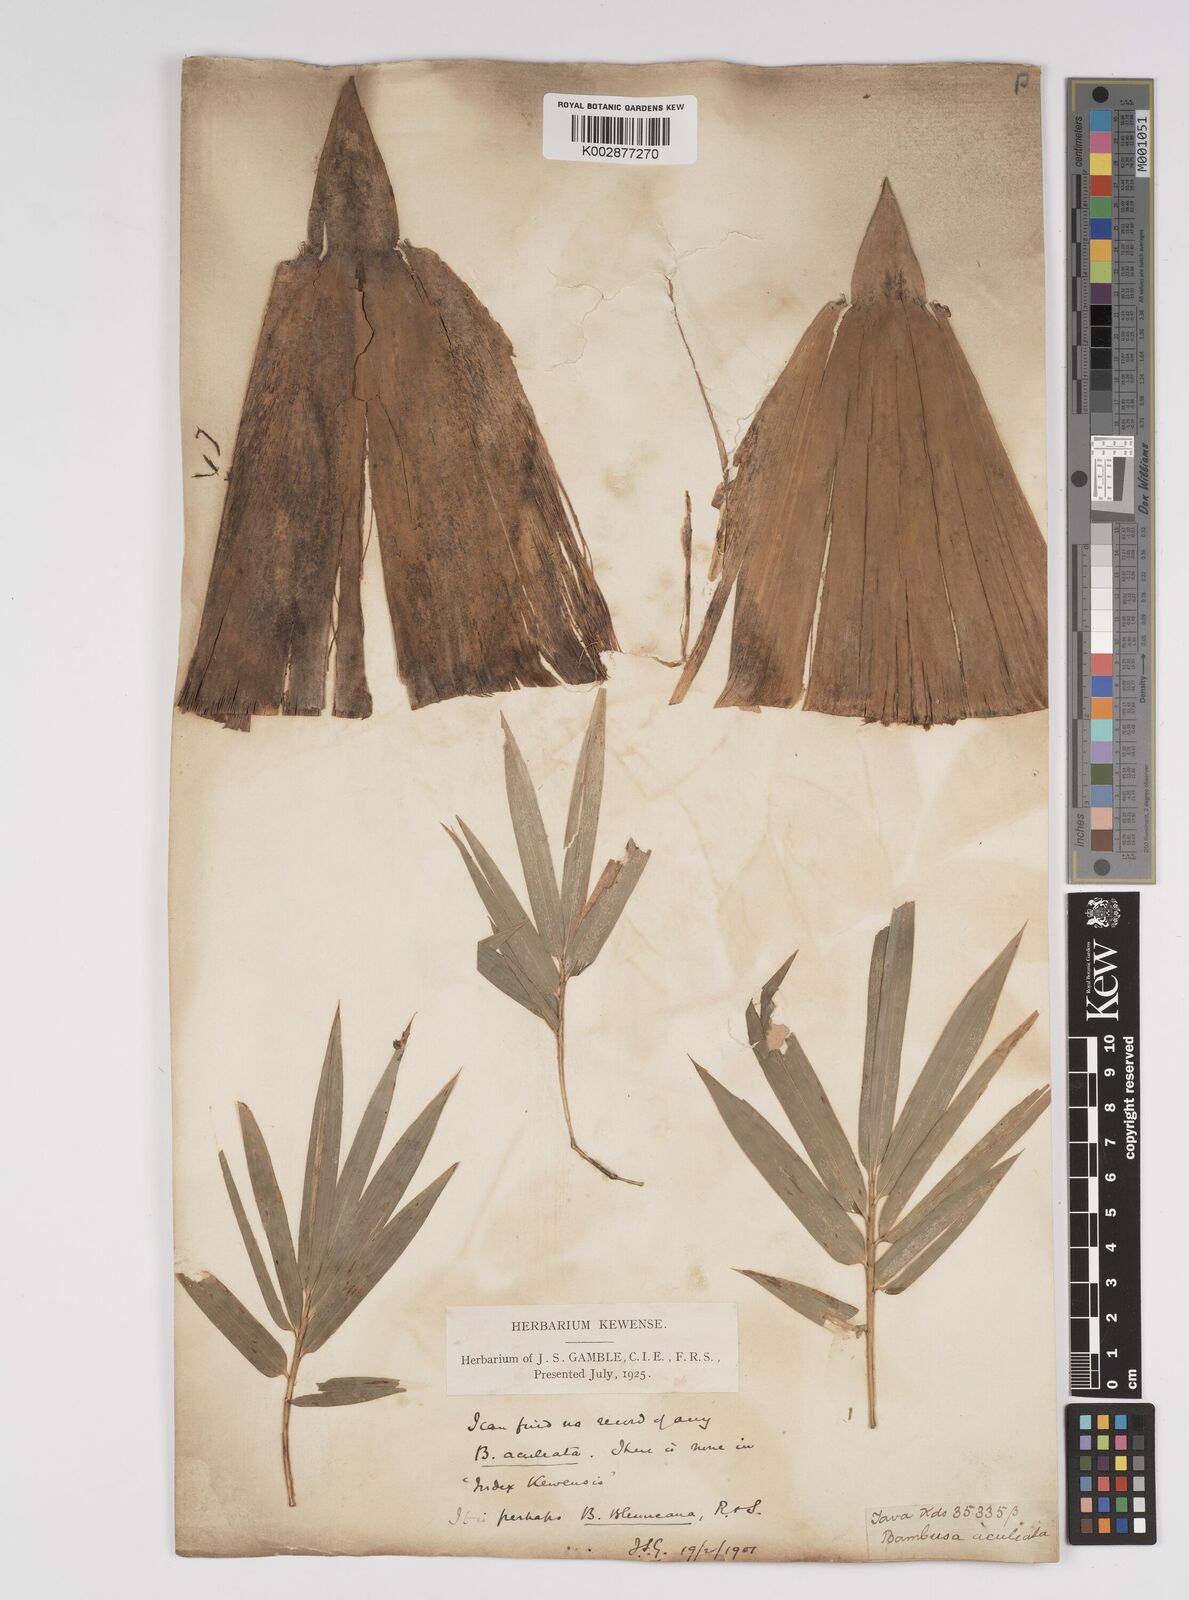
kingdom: Plantae
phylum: Tracheophyta
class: Liliopsida
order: Poales
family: Poaceae
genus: Bambusa
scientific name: Bambusa spinosa
